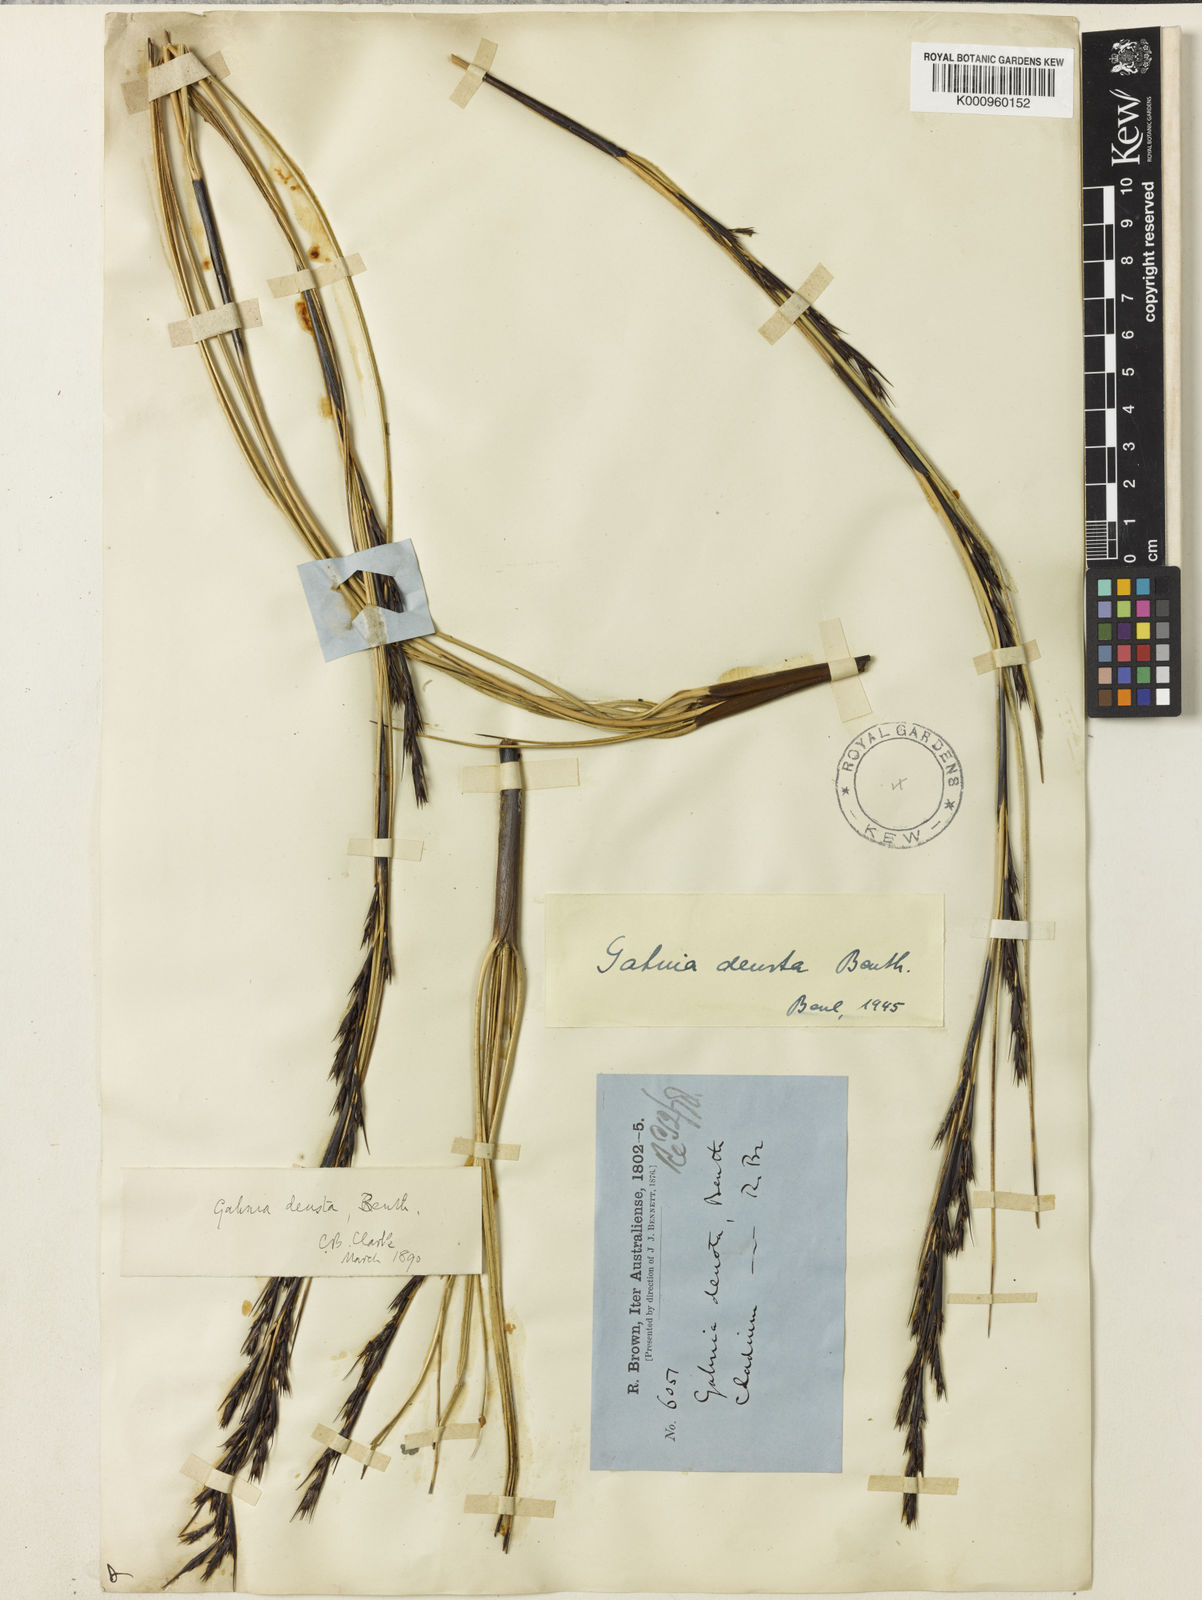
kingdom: Plantae
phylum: Tracheophyta
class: Liliopsida
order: Poales
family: Cyperaceae
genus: Gahnia
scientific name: Gahnia deusta
